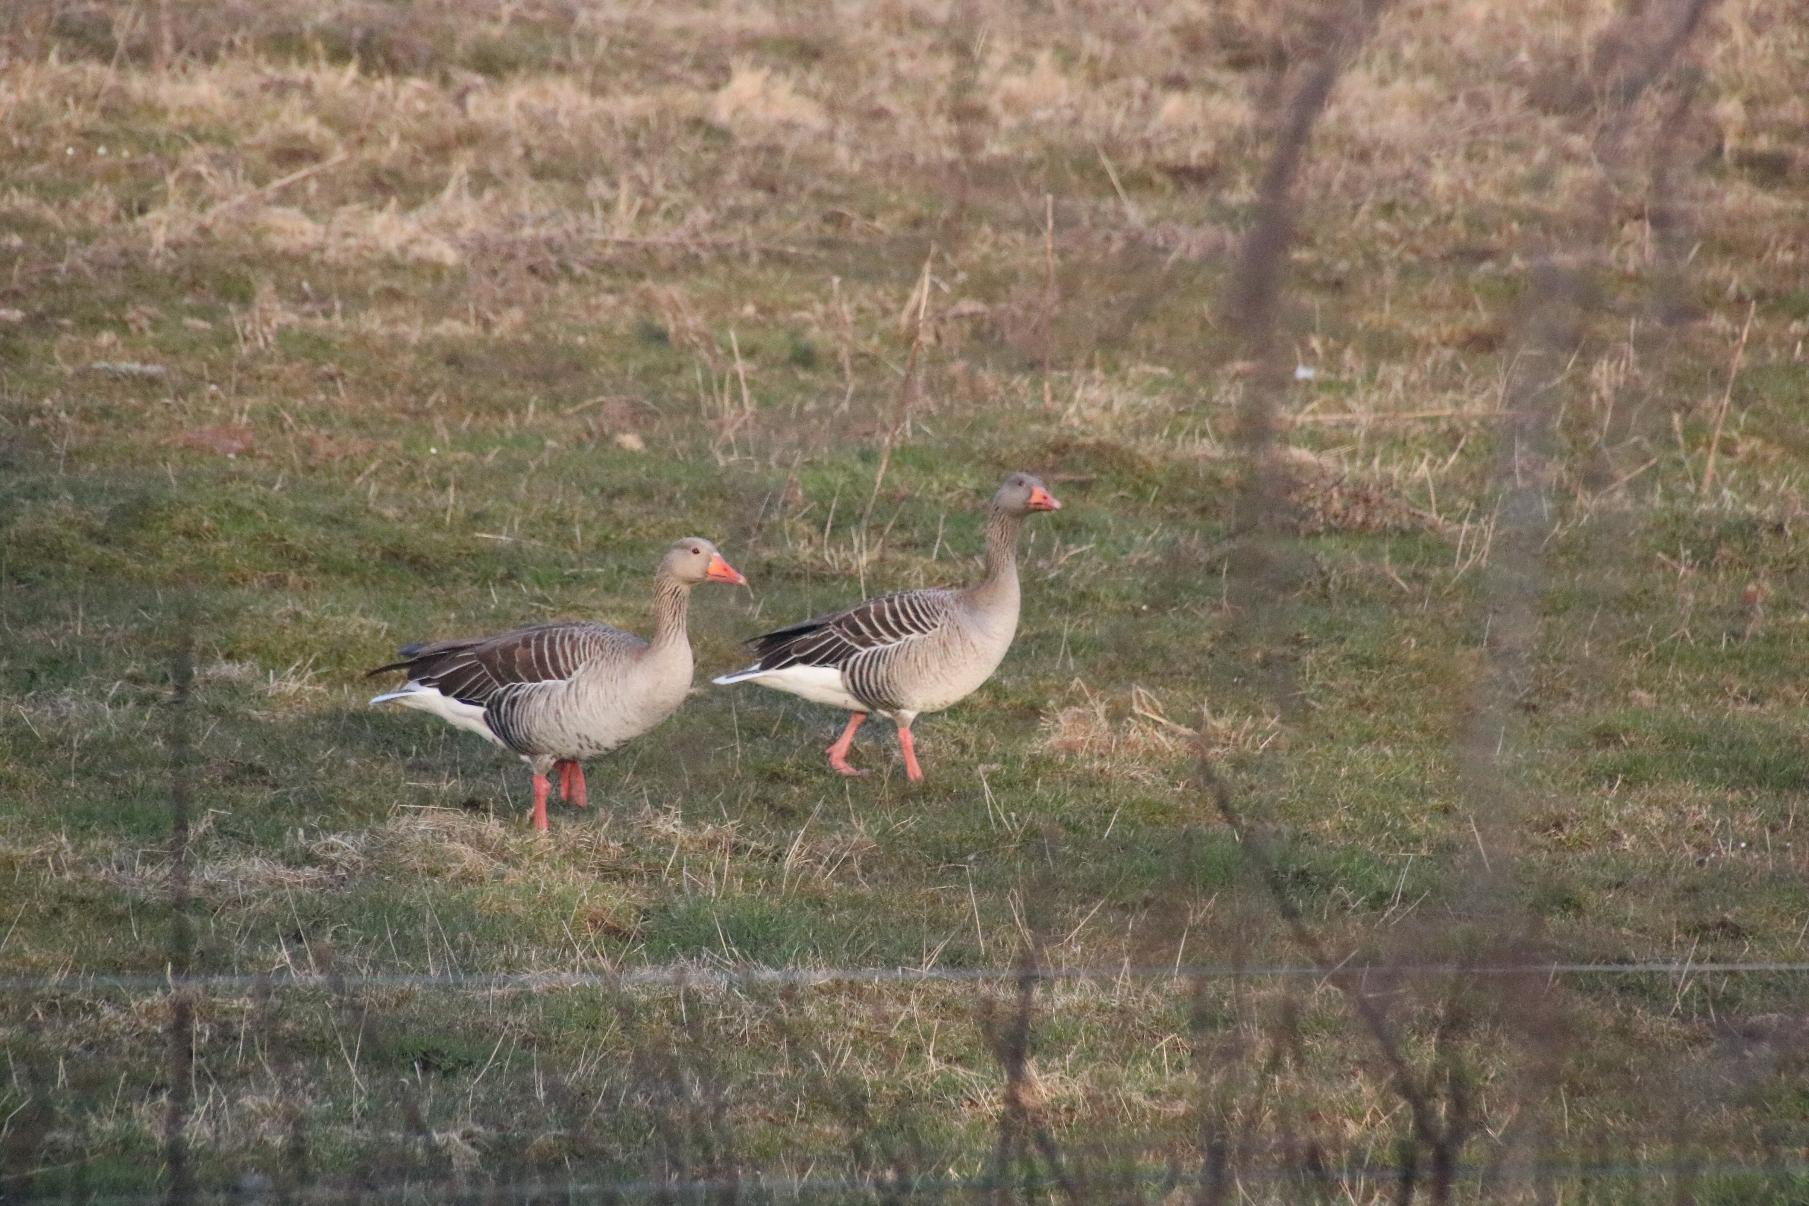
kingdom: Animalia
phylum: Chordata
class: Aves
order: Anseriformes
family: Anatidae
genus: Anser
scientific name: Anser anser
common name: Grågås
